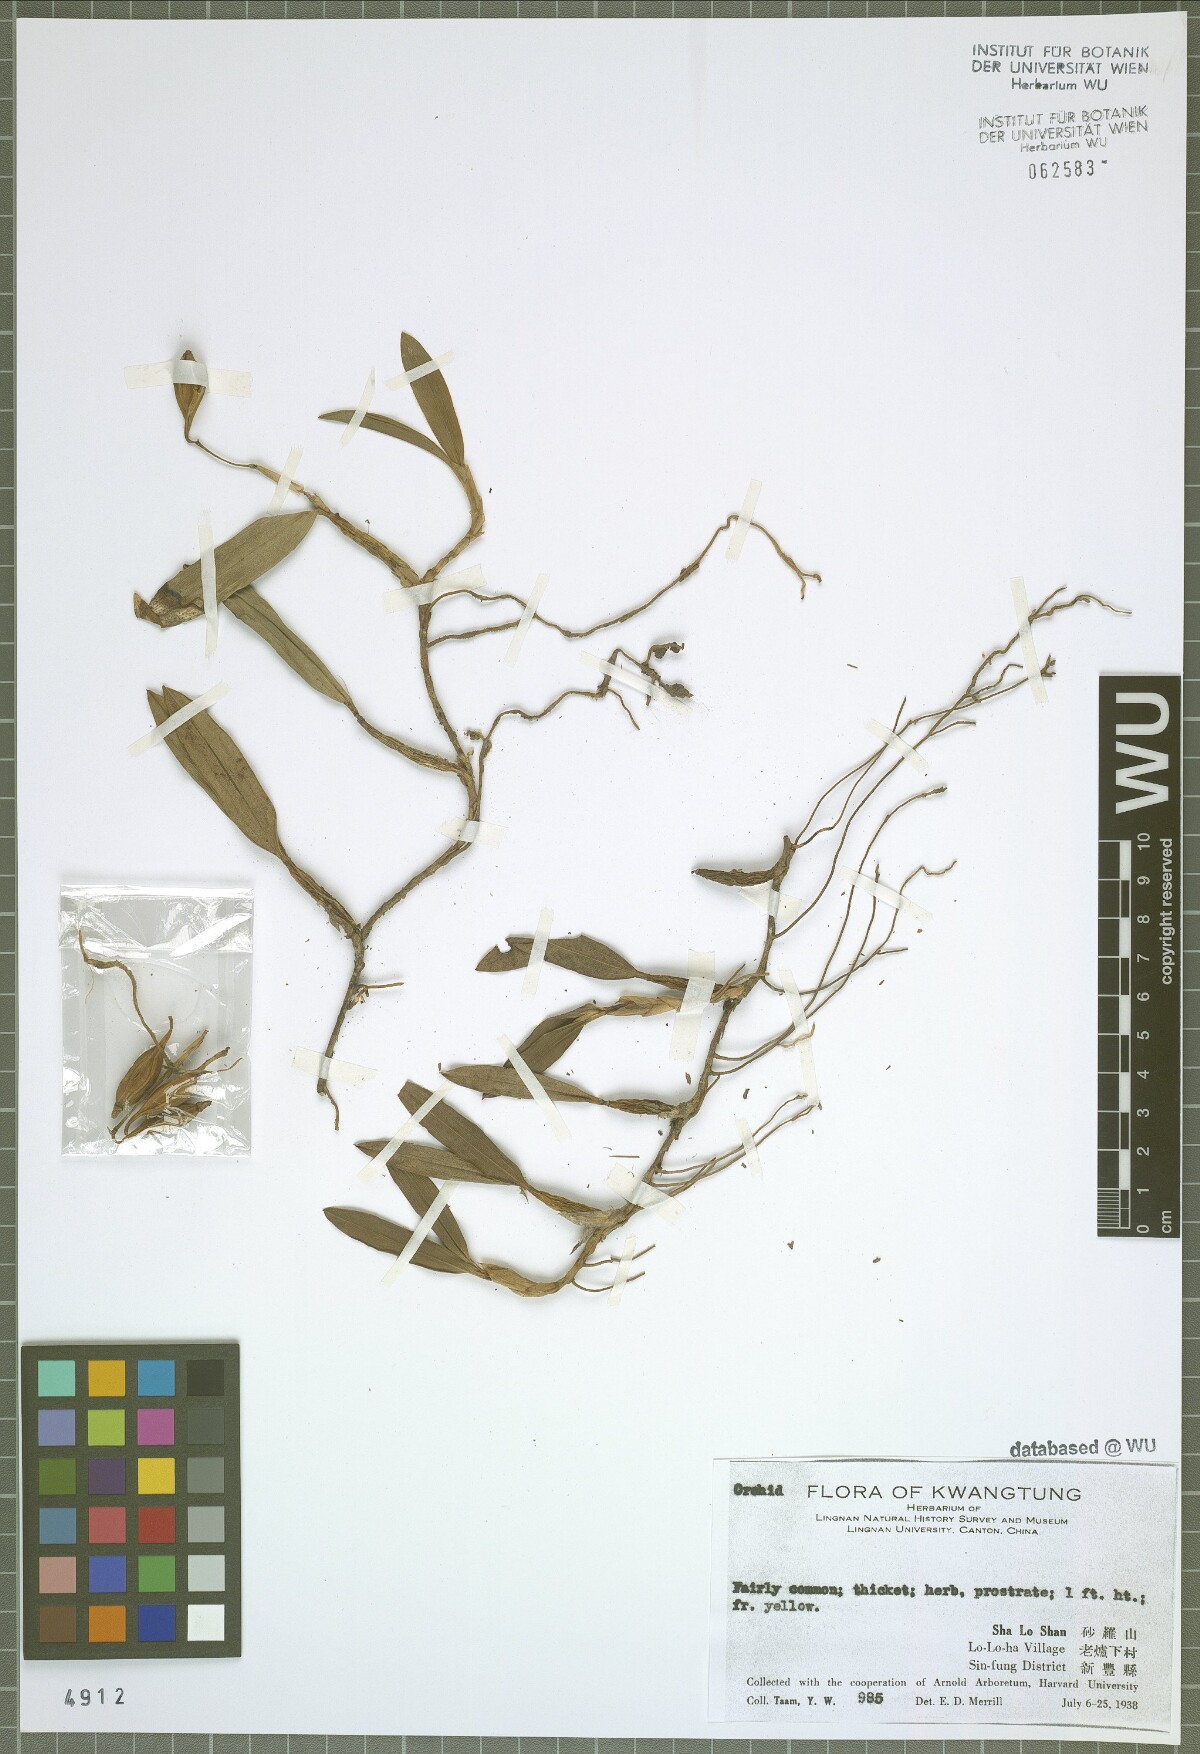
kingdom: Plantae
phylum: Tracheophyta
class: Liliopsida
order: Asparagales
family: Orchidaceae
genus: Coelogyne
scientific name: Coelogyne fimbriata
